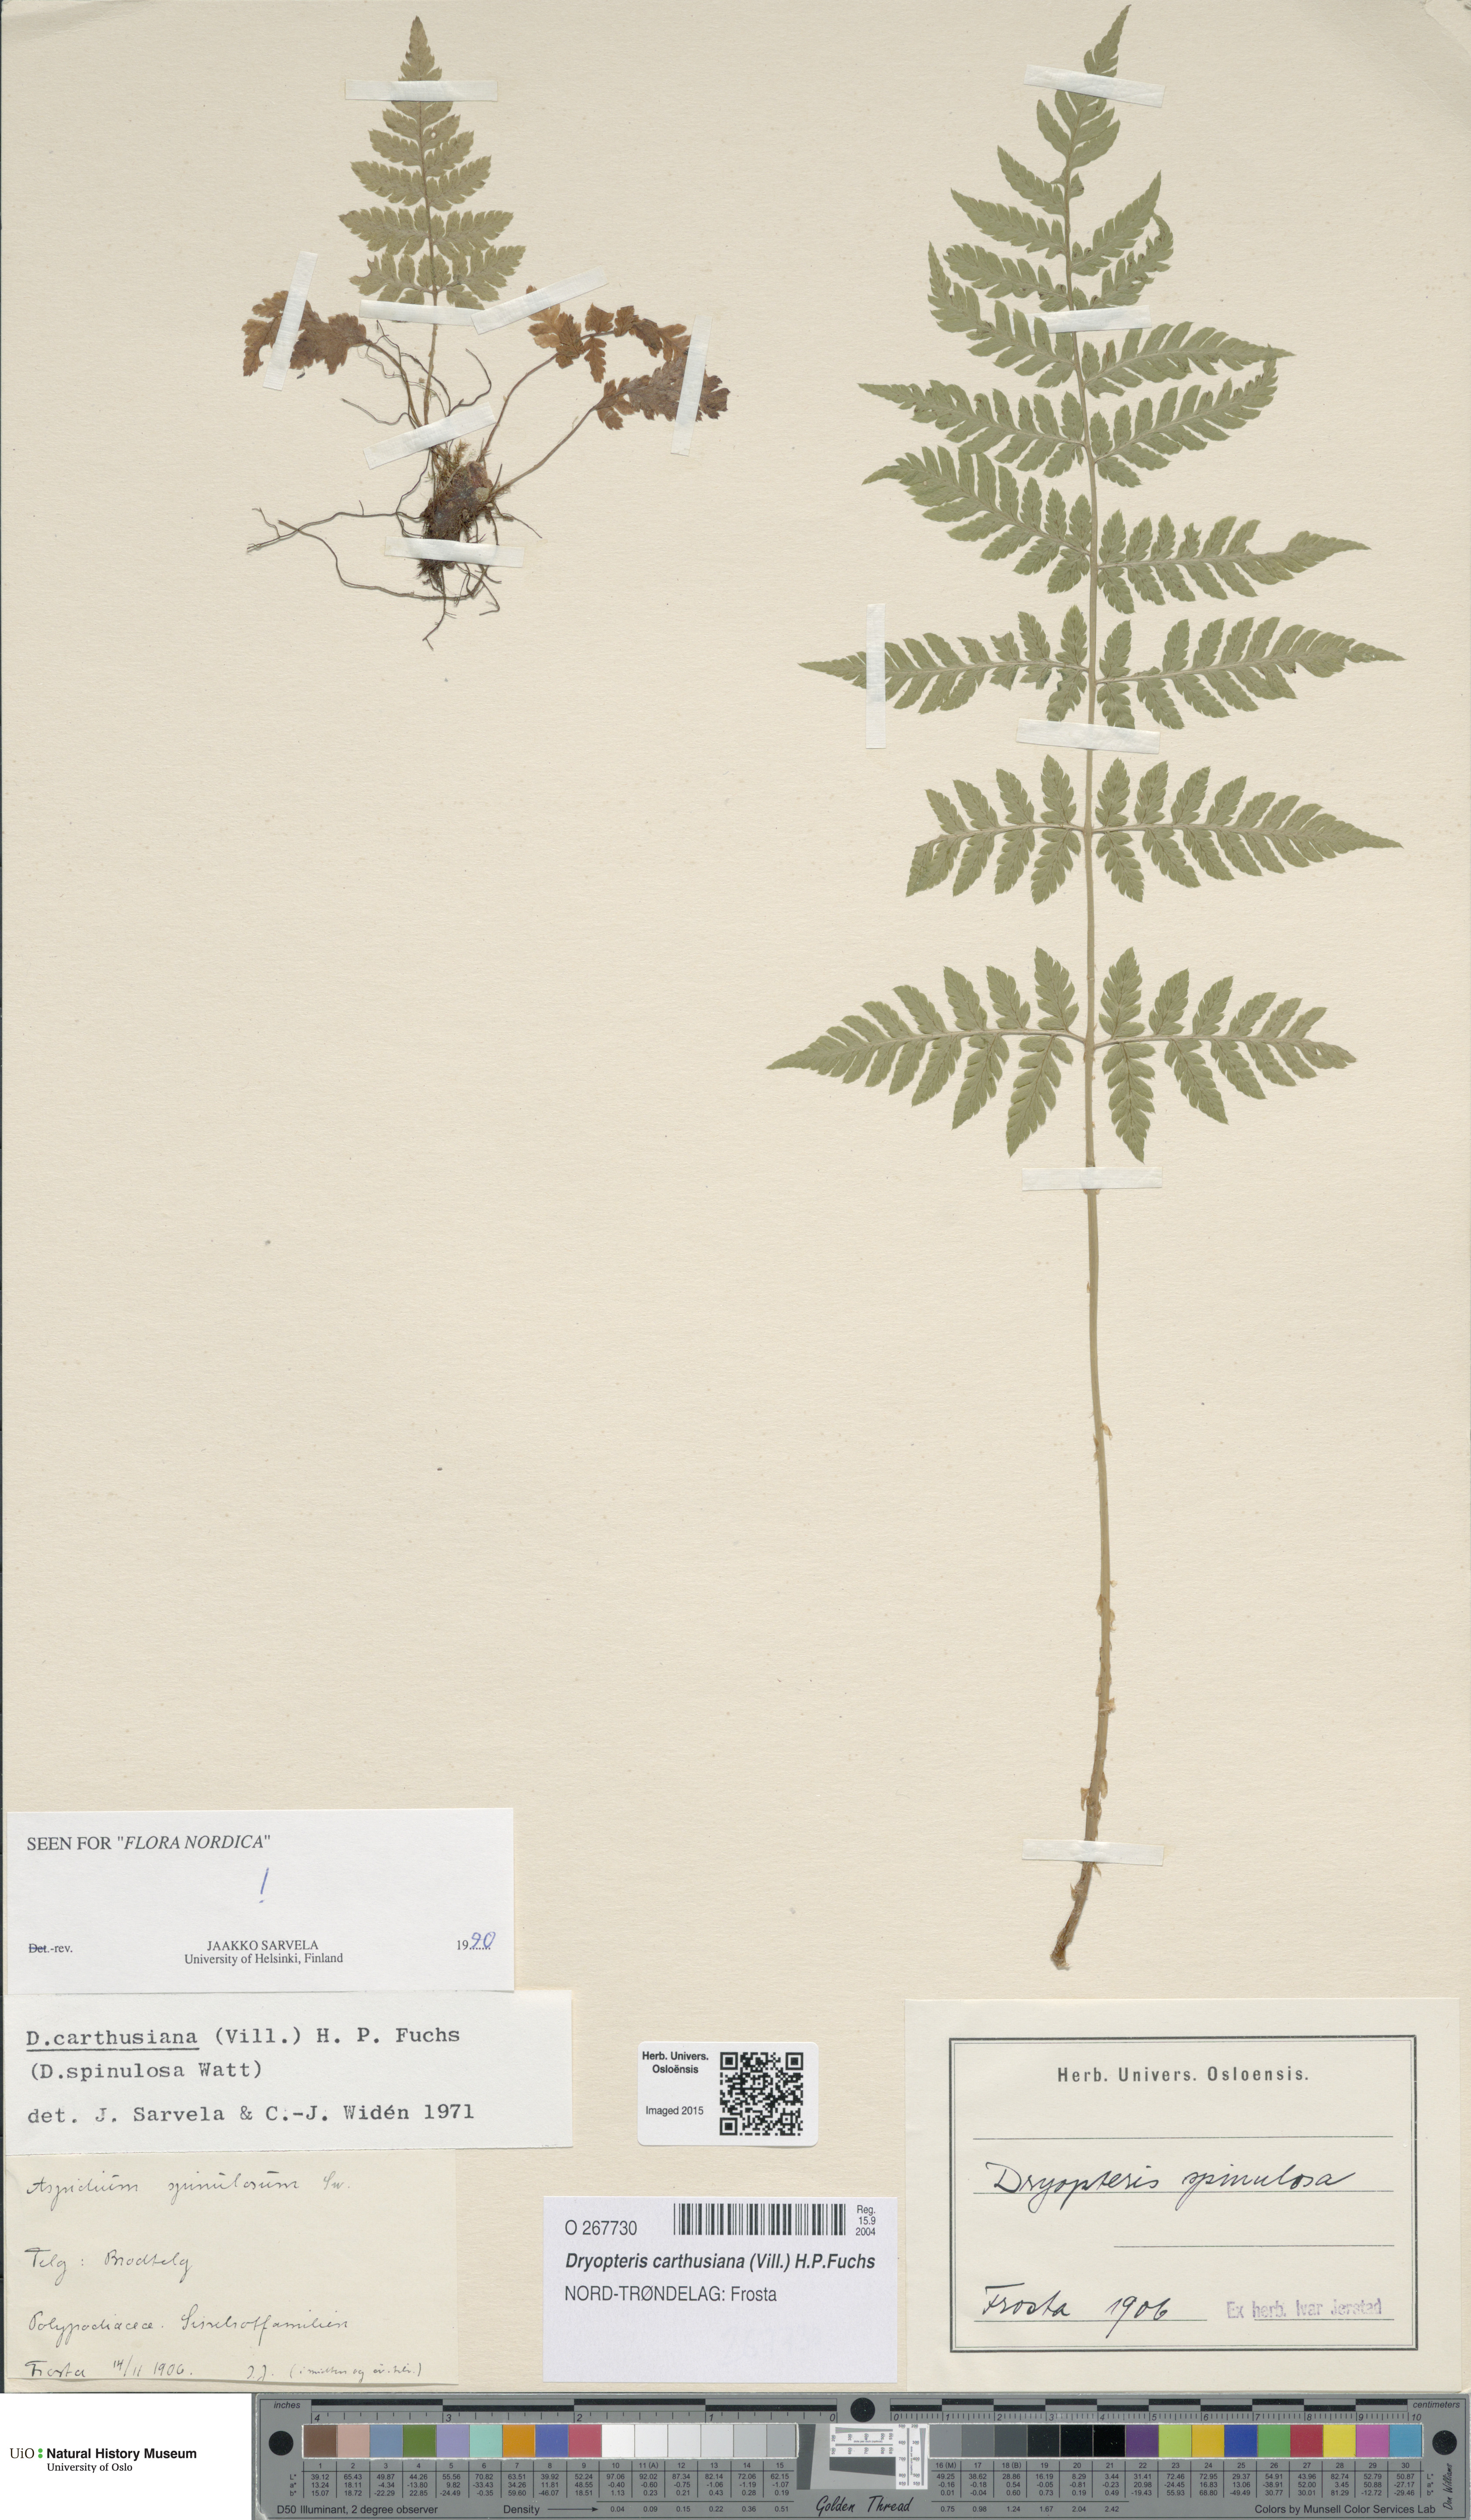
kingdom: Plantae
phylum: Tracheophyta
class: Polypodiopsida
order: Polypodiales
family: Dryopteridaceae
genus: Dryopteris
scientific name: Dryopteris carthusiana
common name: Narrow buckler-fern
